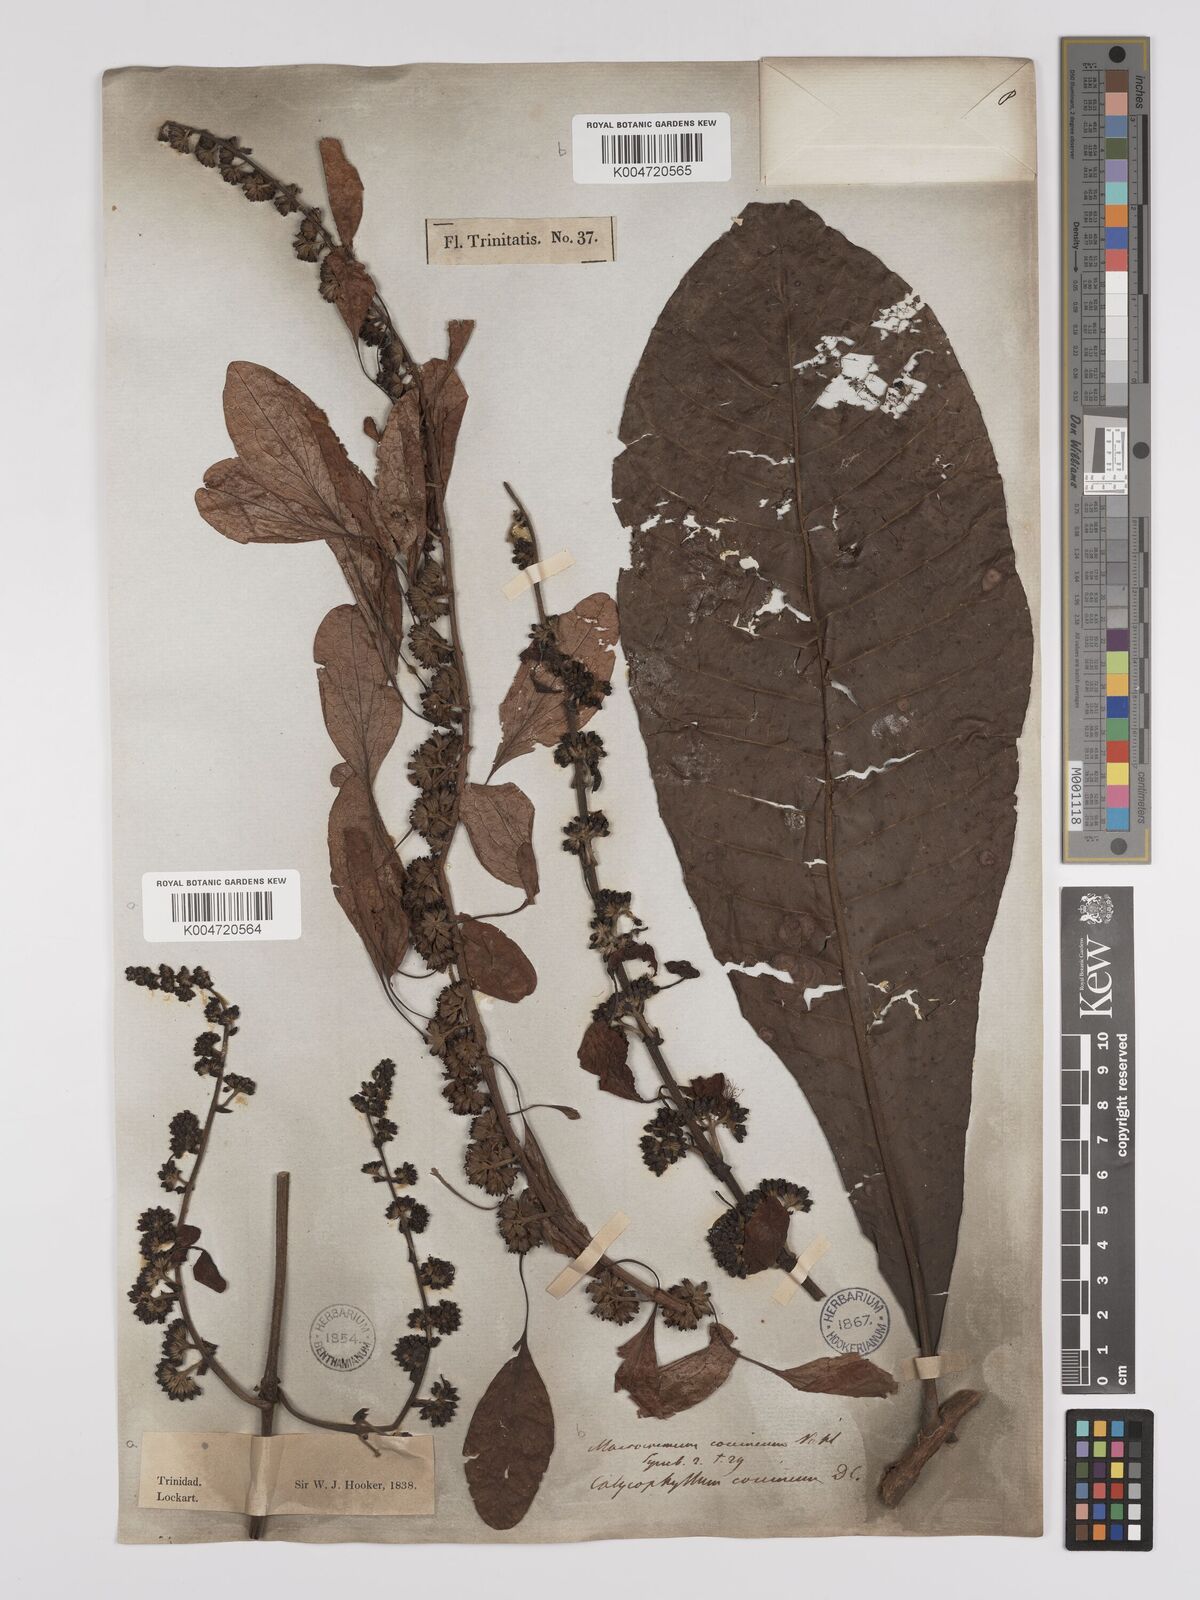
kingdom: Plantae
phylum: Tracheophyta
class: Magnoliopsida
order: Gentianales
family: Rubiaceae
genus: Warszewiczia
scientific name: Warszewiczia coccinea
